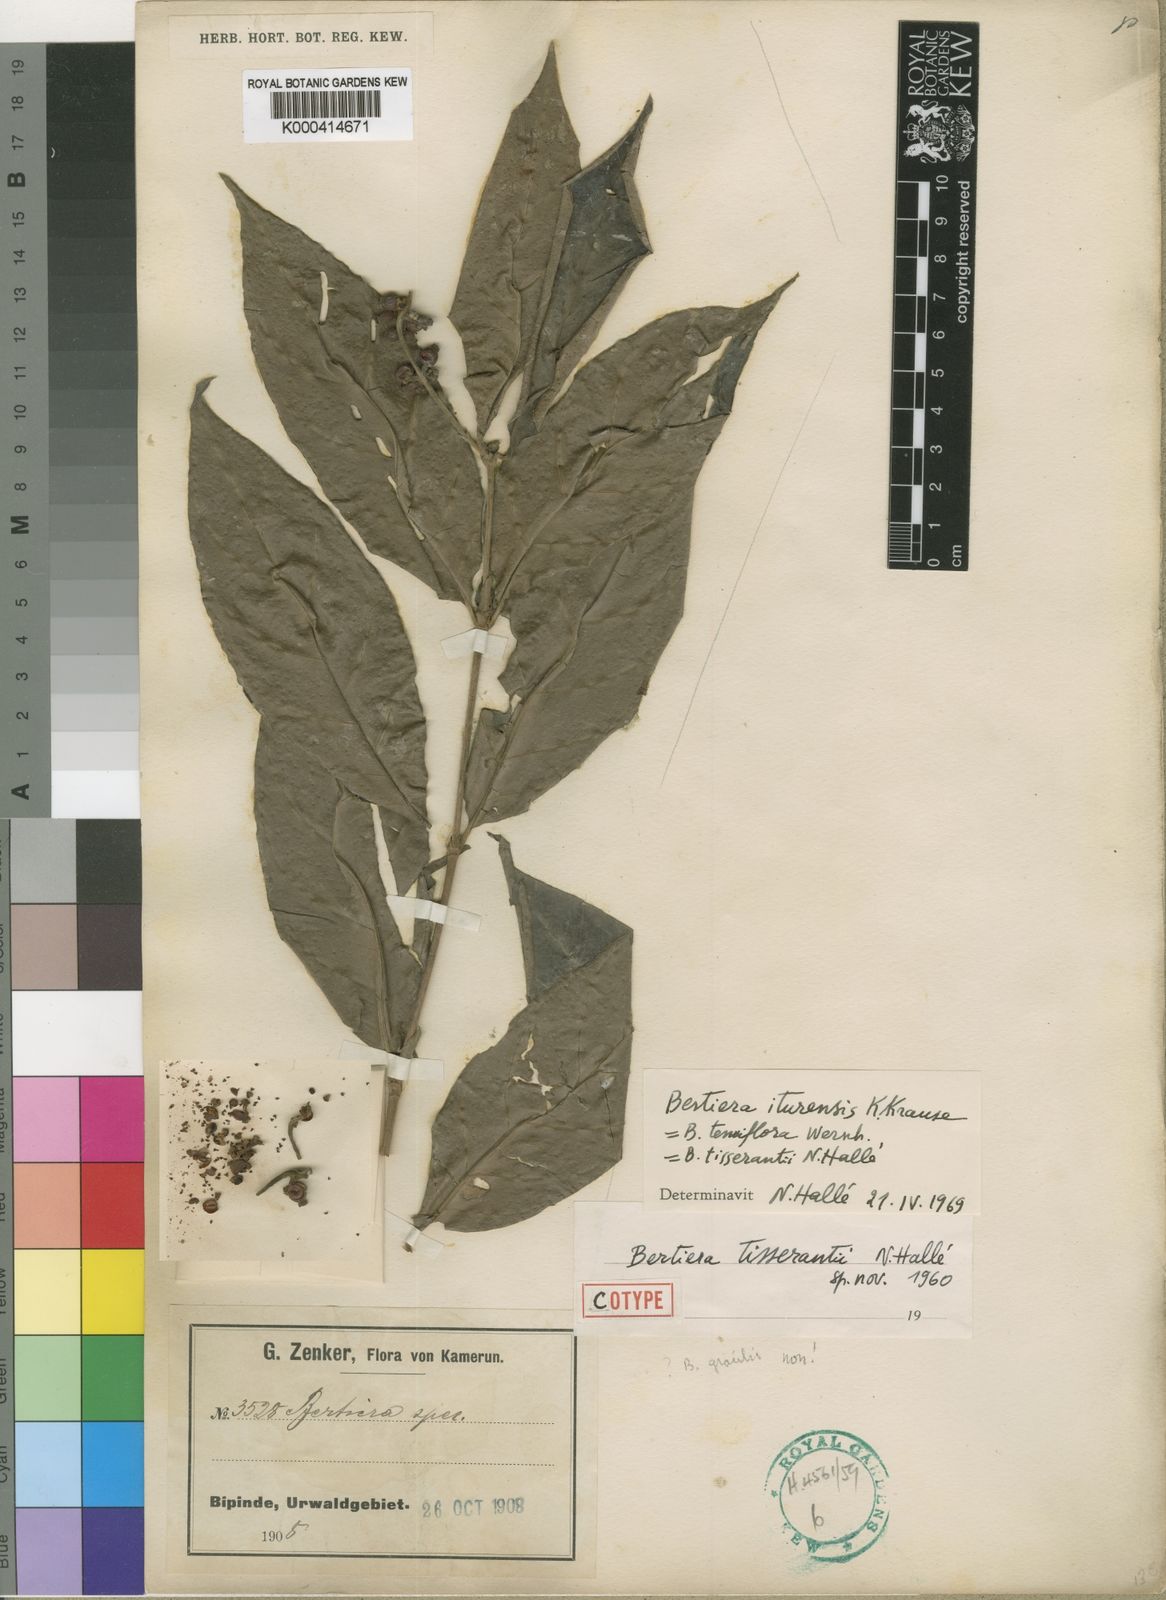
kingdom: Plantae
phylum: Tracheophyta
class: Magnoliopsida
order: Gentianales
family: Rubiaceae
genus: Bertiera
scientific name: Bertiera iturensis
